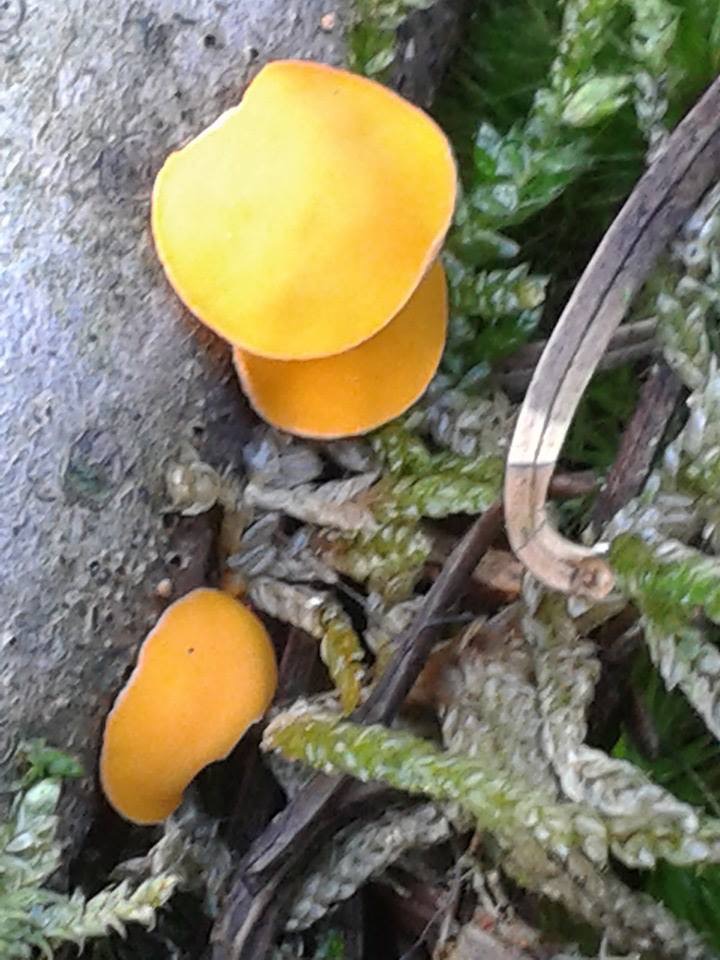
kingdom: Fungi
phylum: Ascomycota
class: Pezizomycetes
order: Pezizales
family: Sarcoscyphaceae
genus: Pithya
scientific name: Pithya vulgaris
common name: stor dukatbæger
